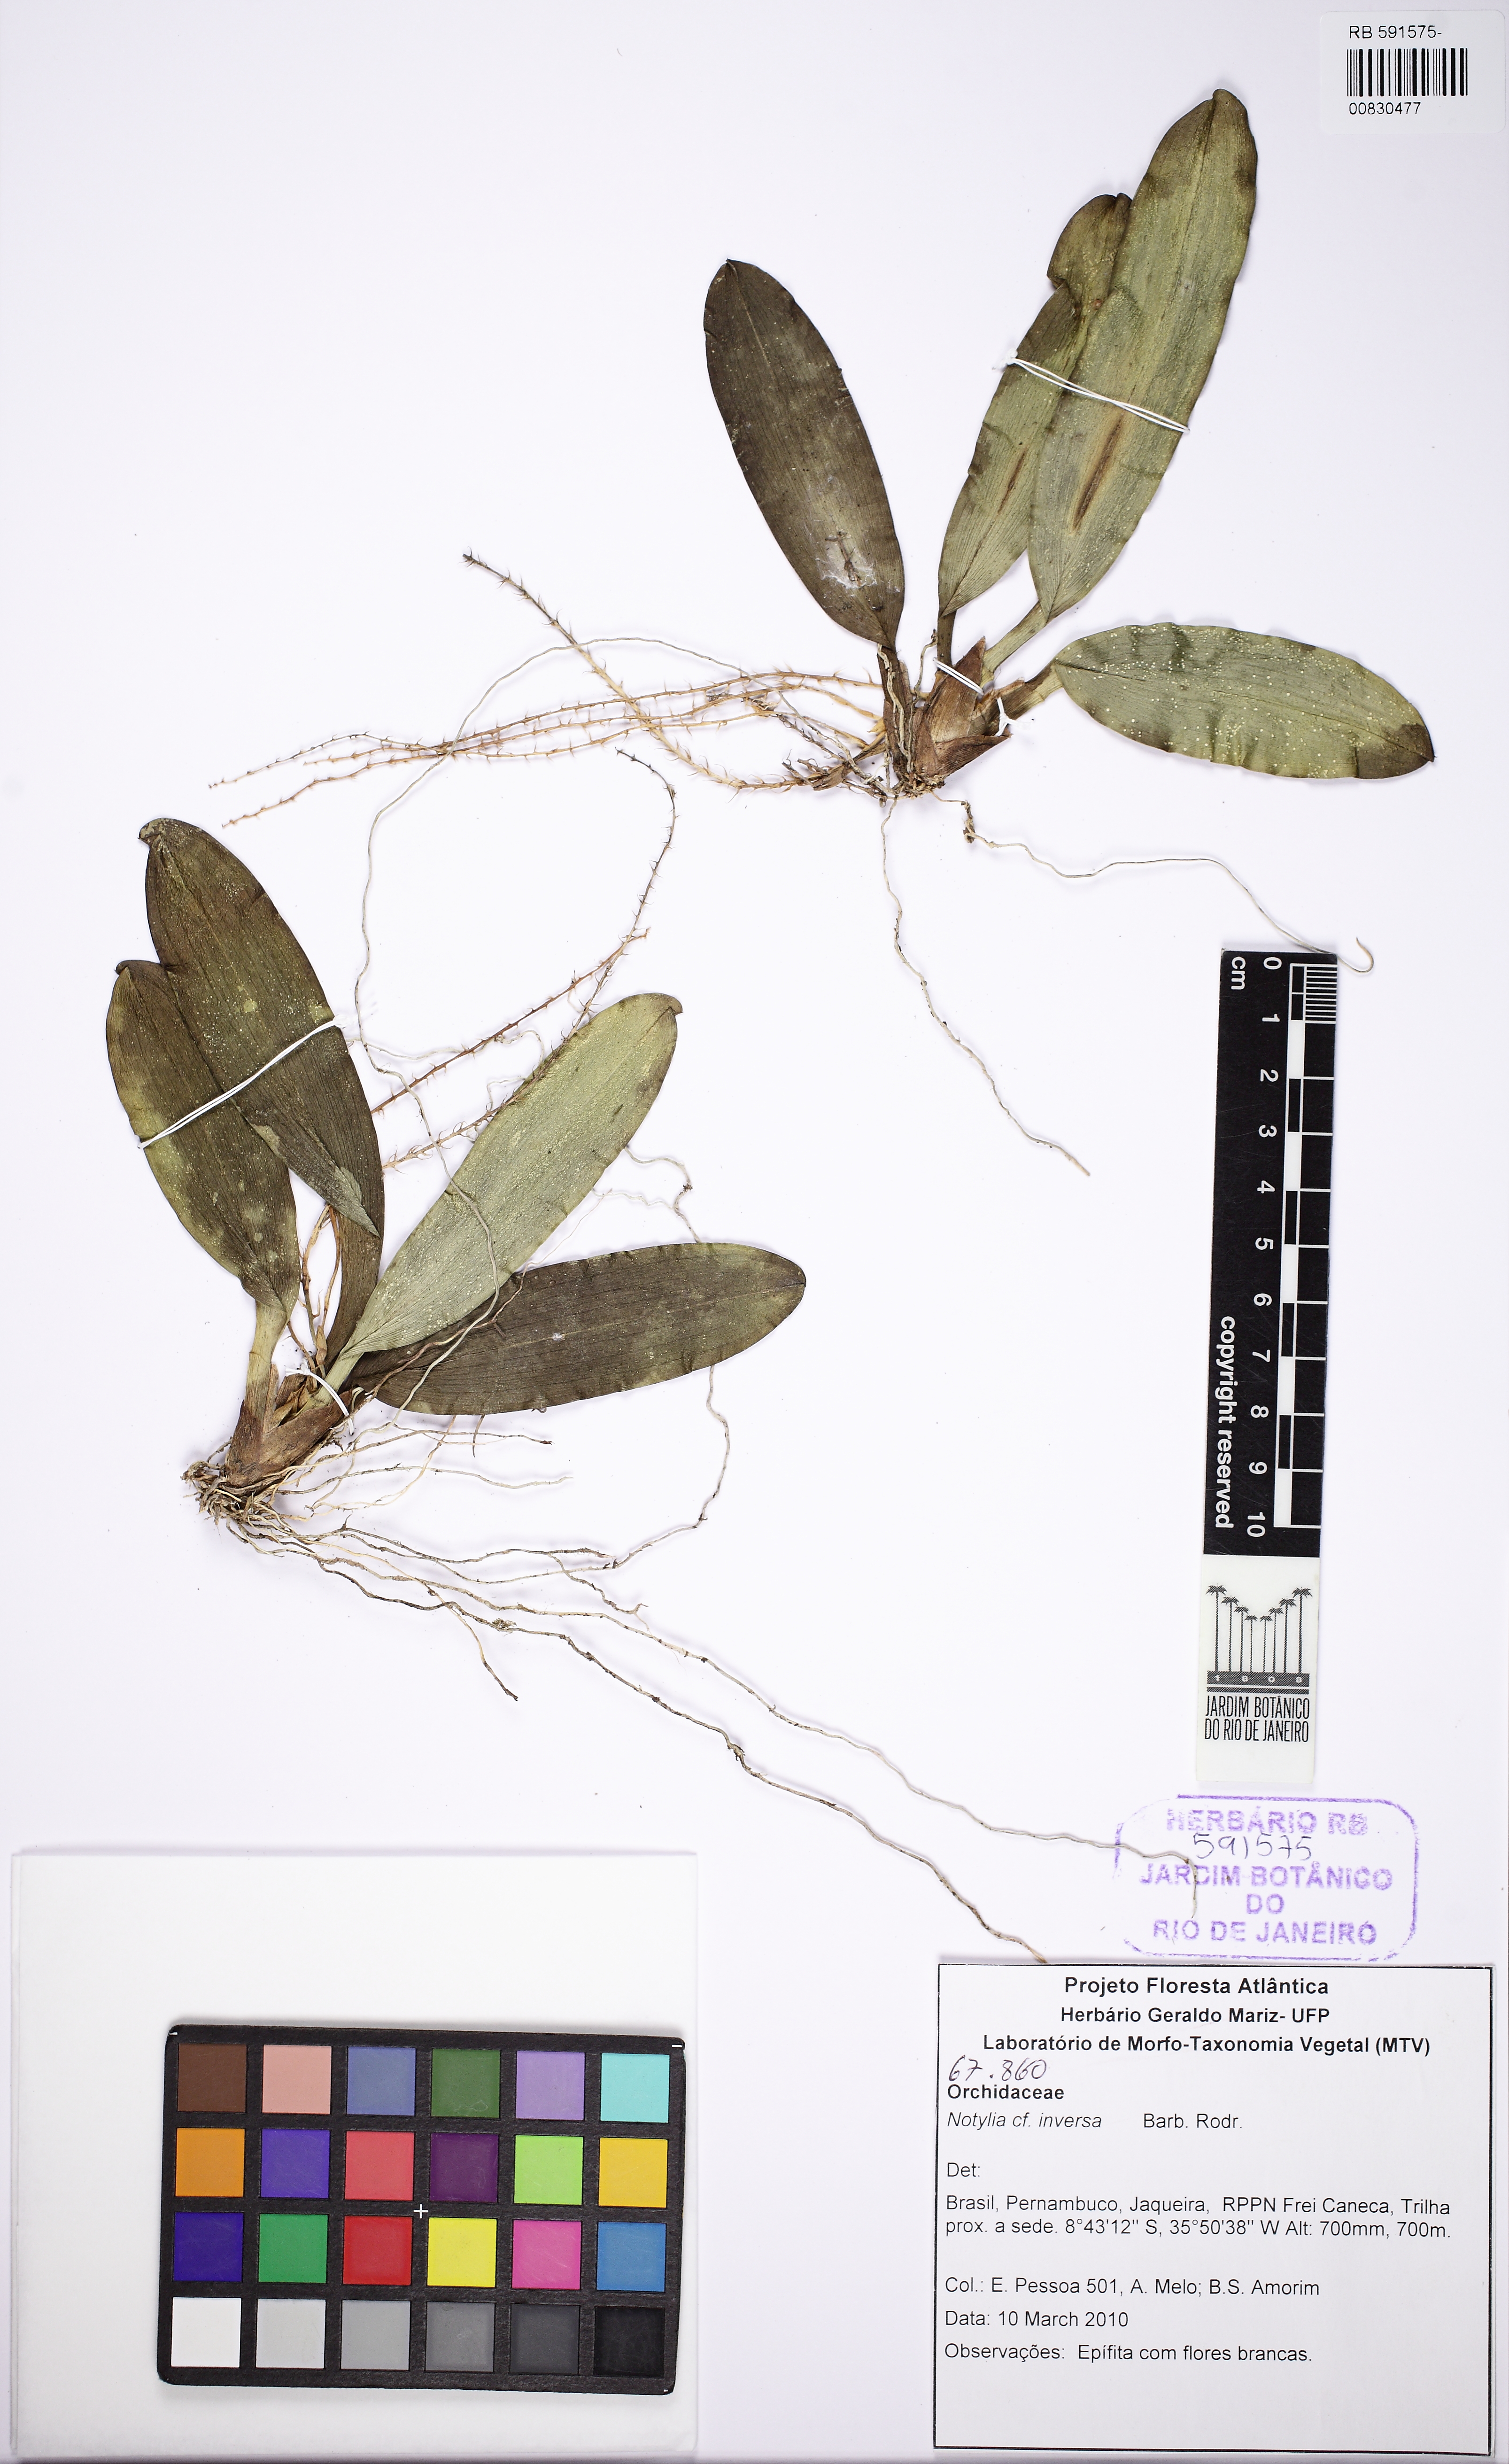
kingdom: Plantae
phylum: Tracheophyta
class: Liliopsida
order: Asparagales
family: Orchidaceae
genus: Notylia
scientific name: Notylia inversa
